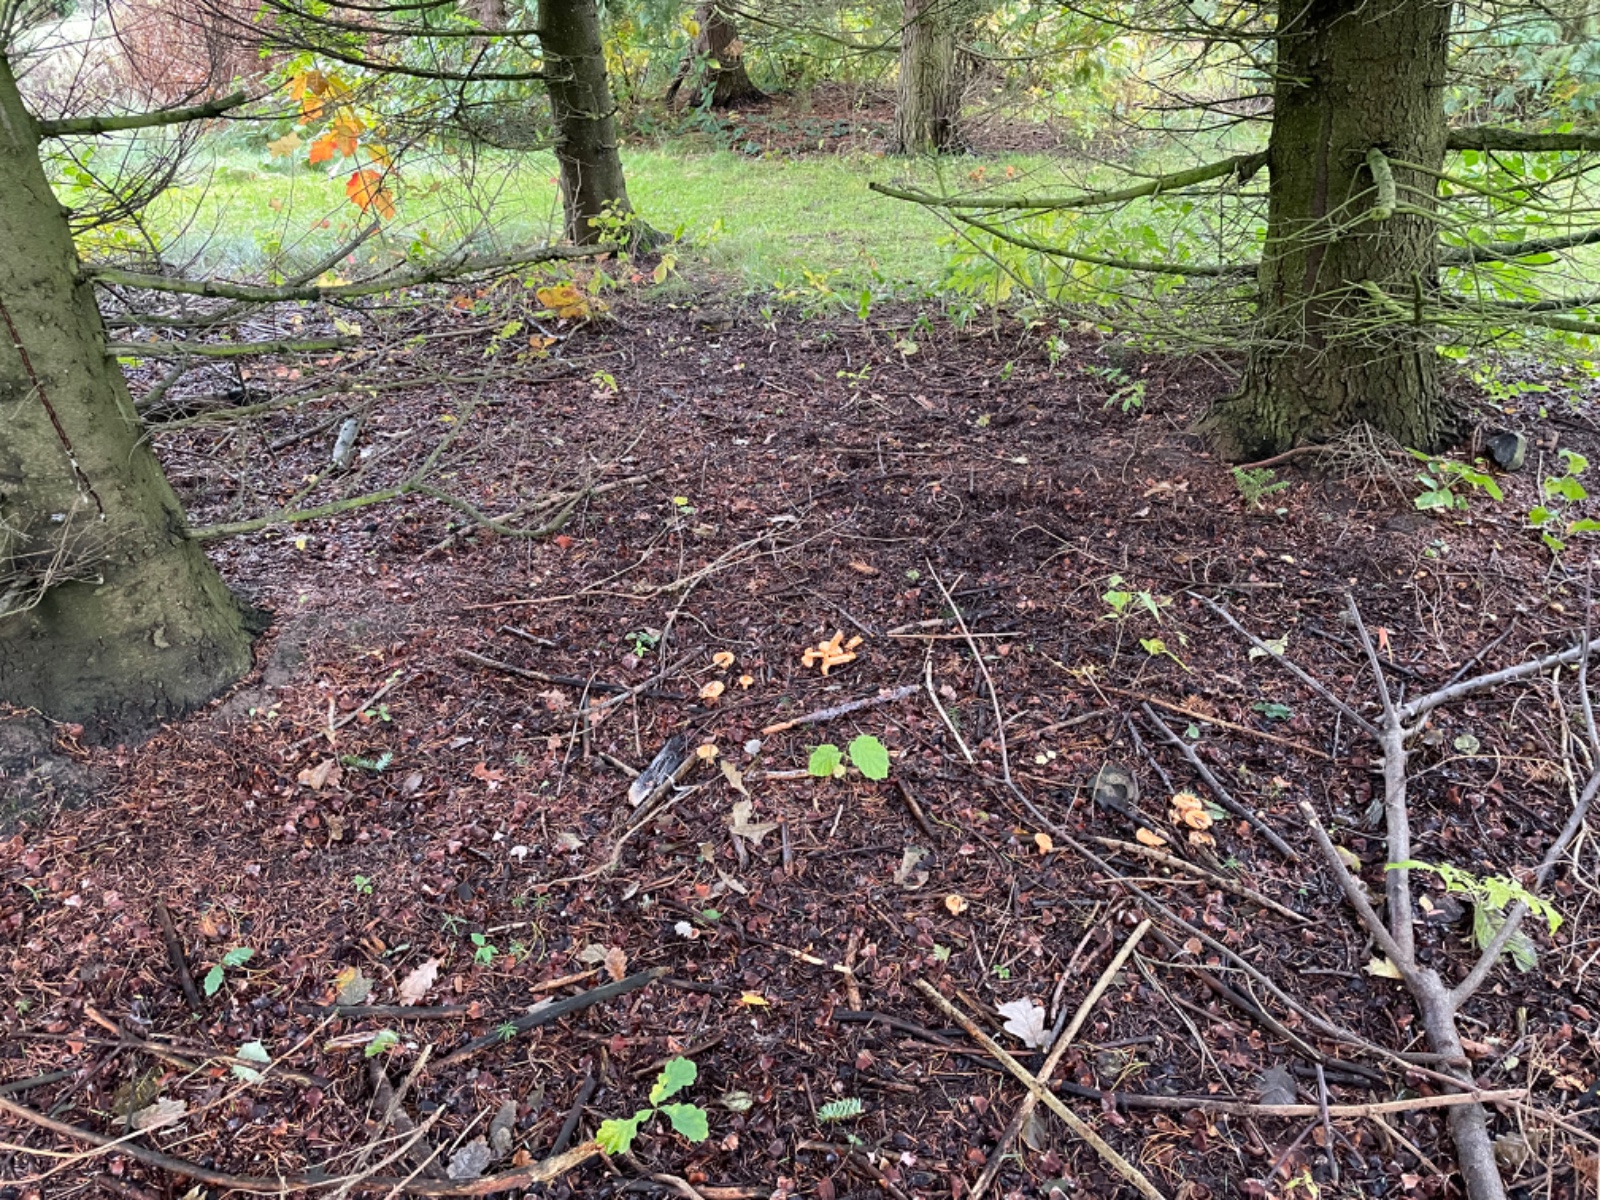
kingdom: Fungi
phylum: Basidiomycota
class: Agaricomycetes
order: Russulales
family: Russulaceae
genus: Lactarius
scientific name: Lactarius salmonicolor
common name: laksefarvet mælkehat
